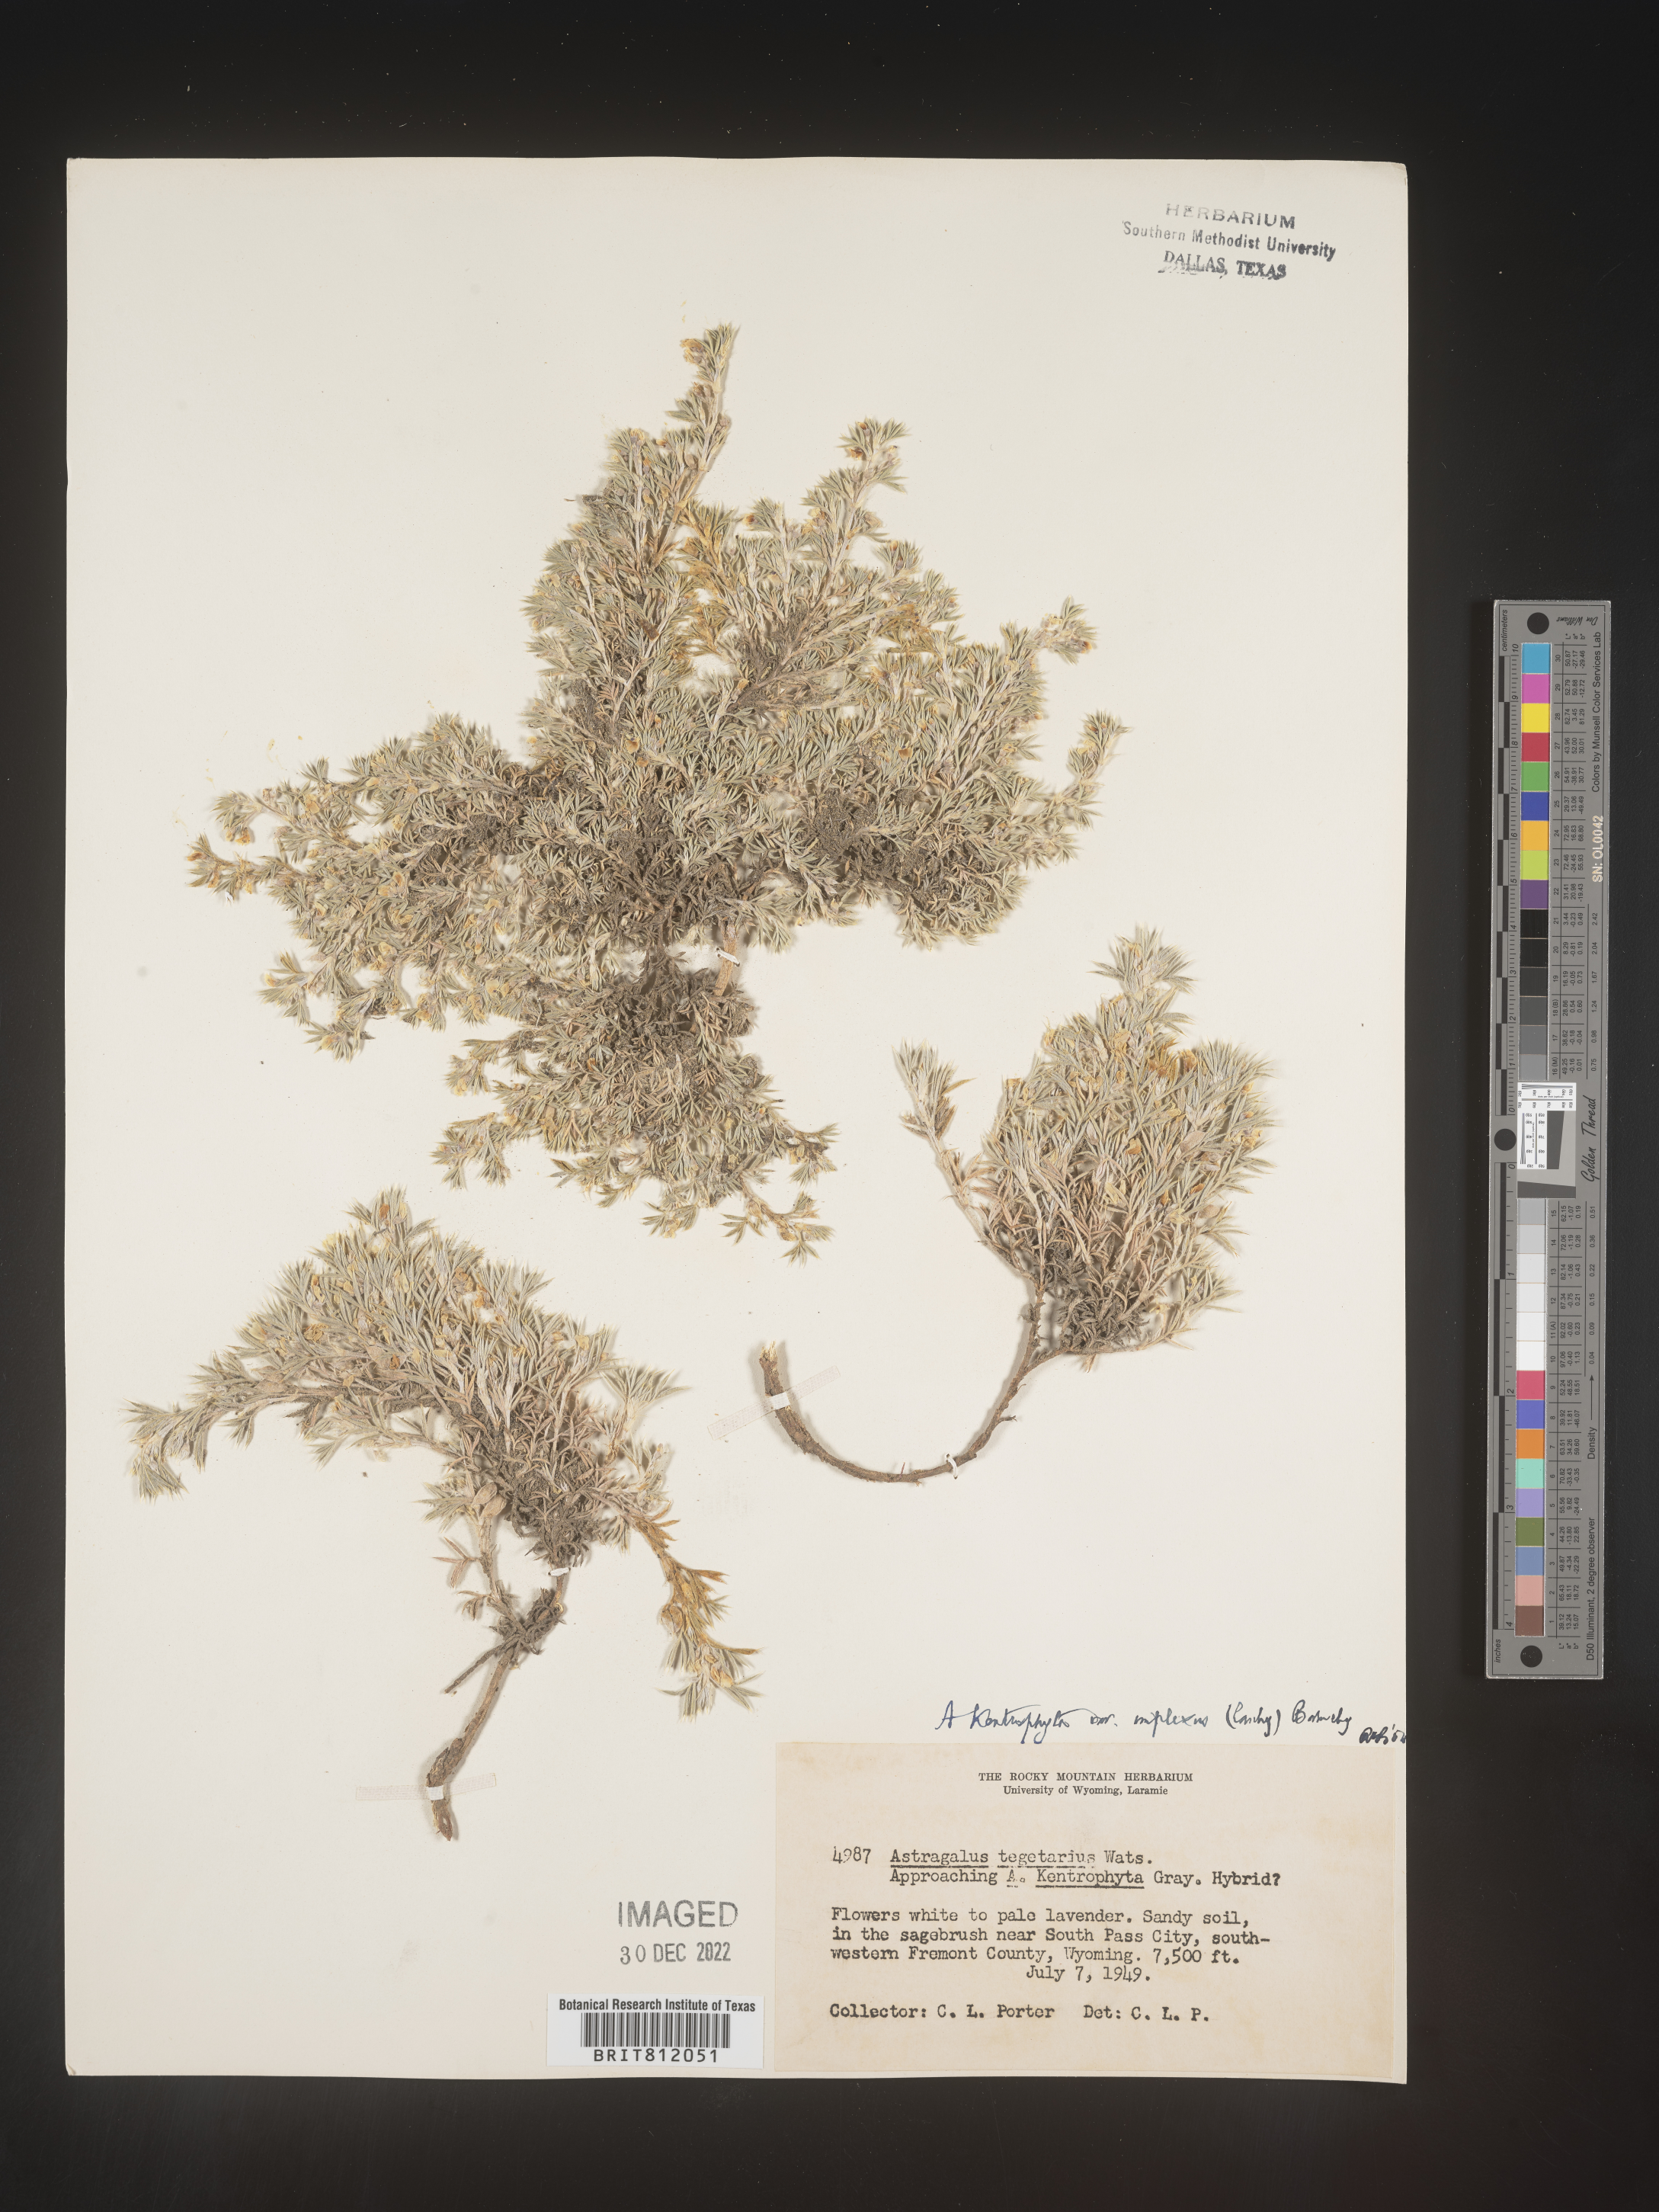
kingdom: Plantae
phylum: Tracheophyta
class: Magnoliopsida
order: Fabales
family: Fabaceae
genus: Astragalus
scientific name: Astragalus kentrophyta
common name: Prickly milk-vetch
